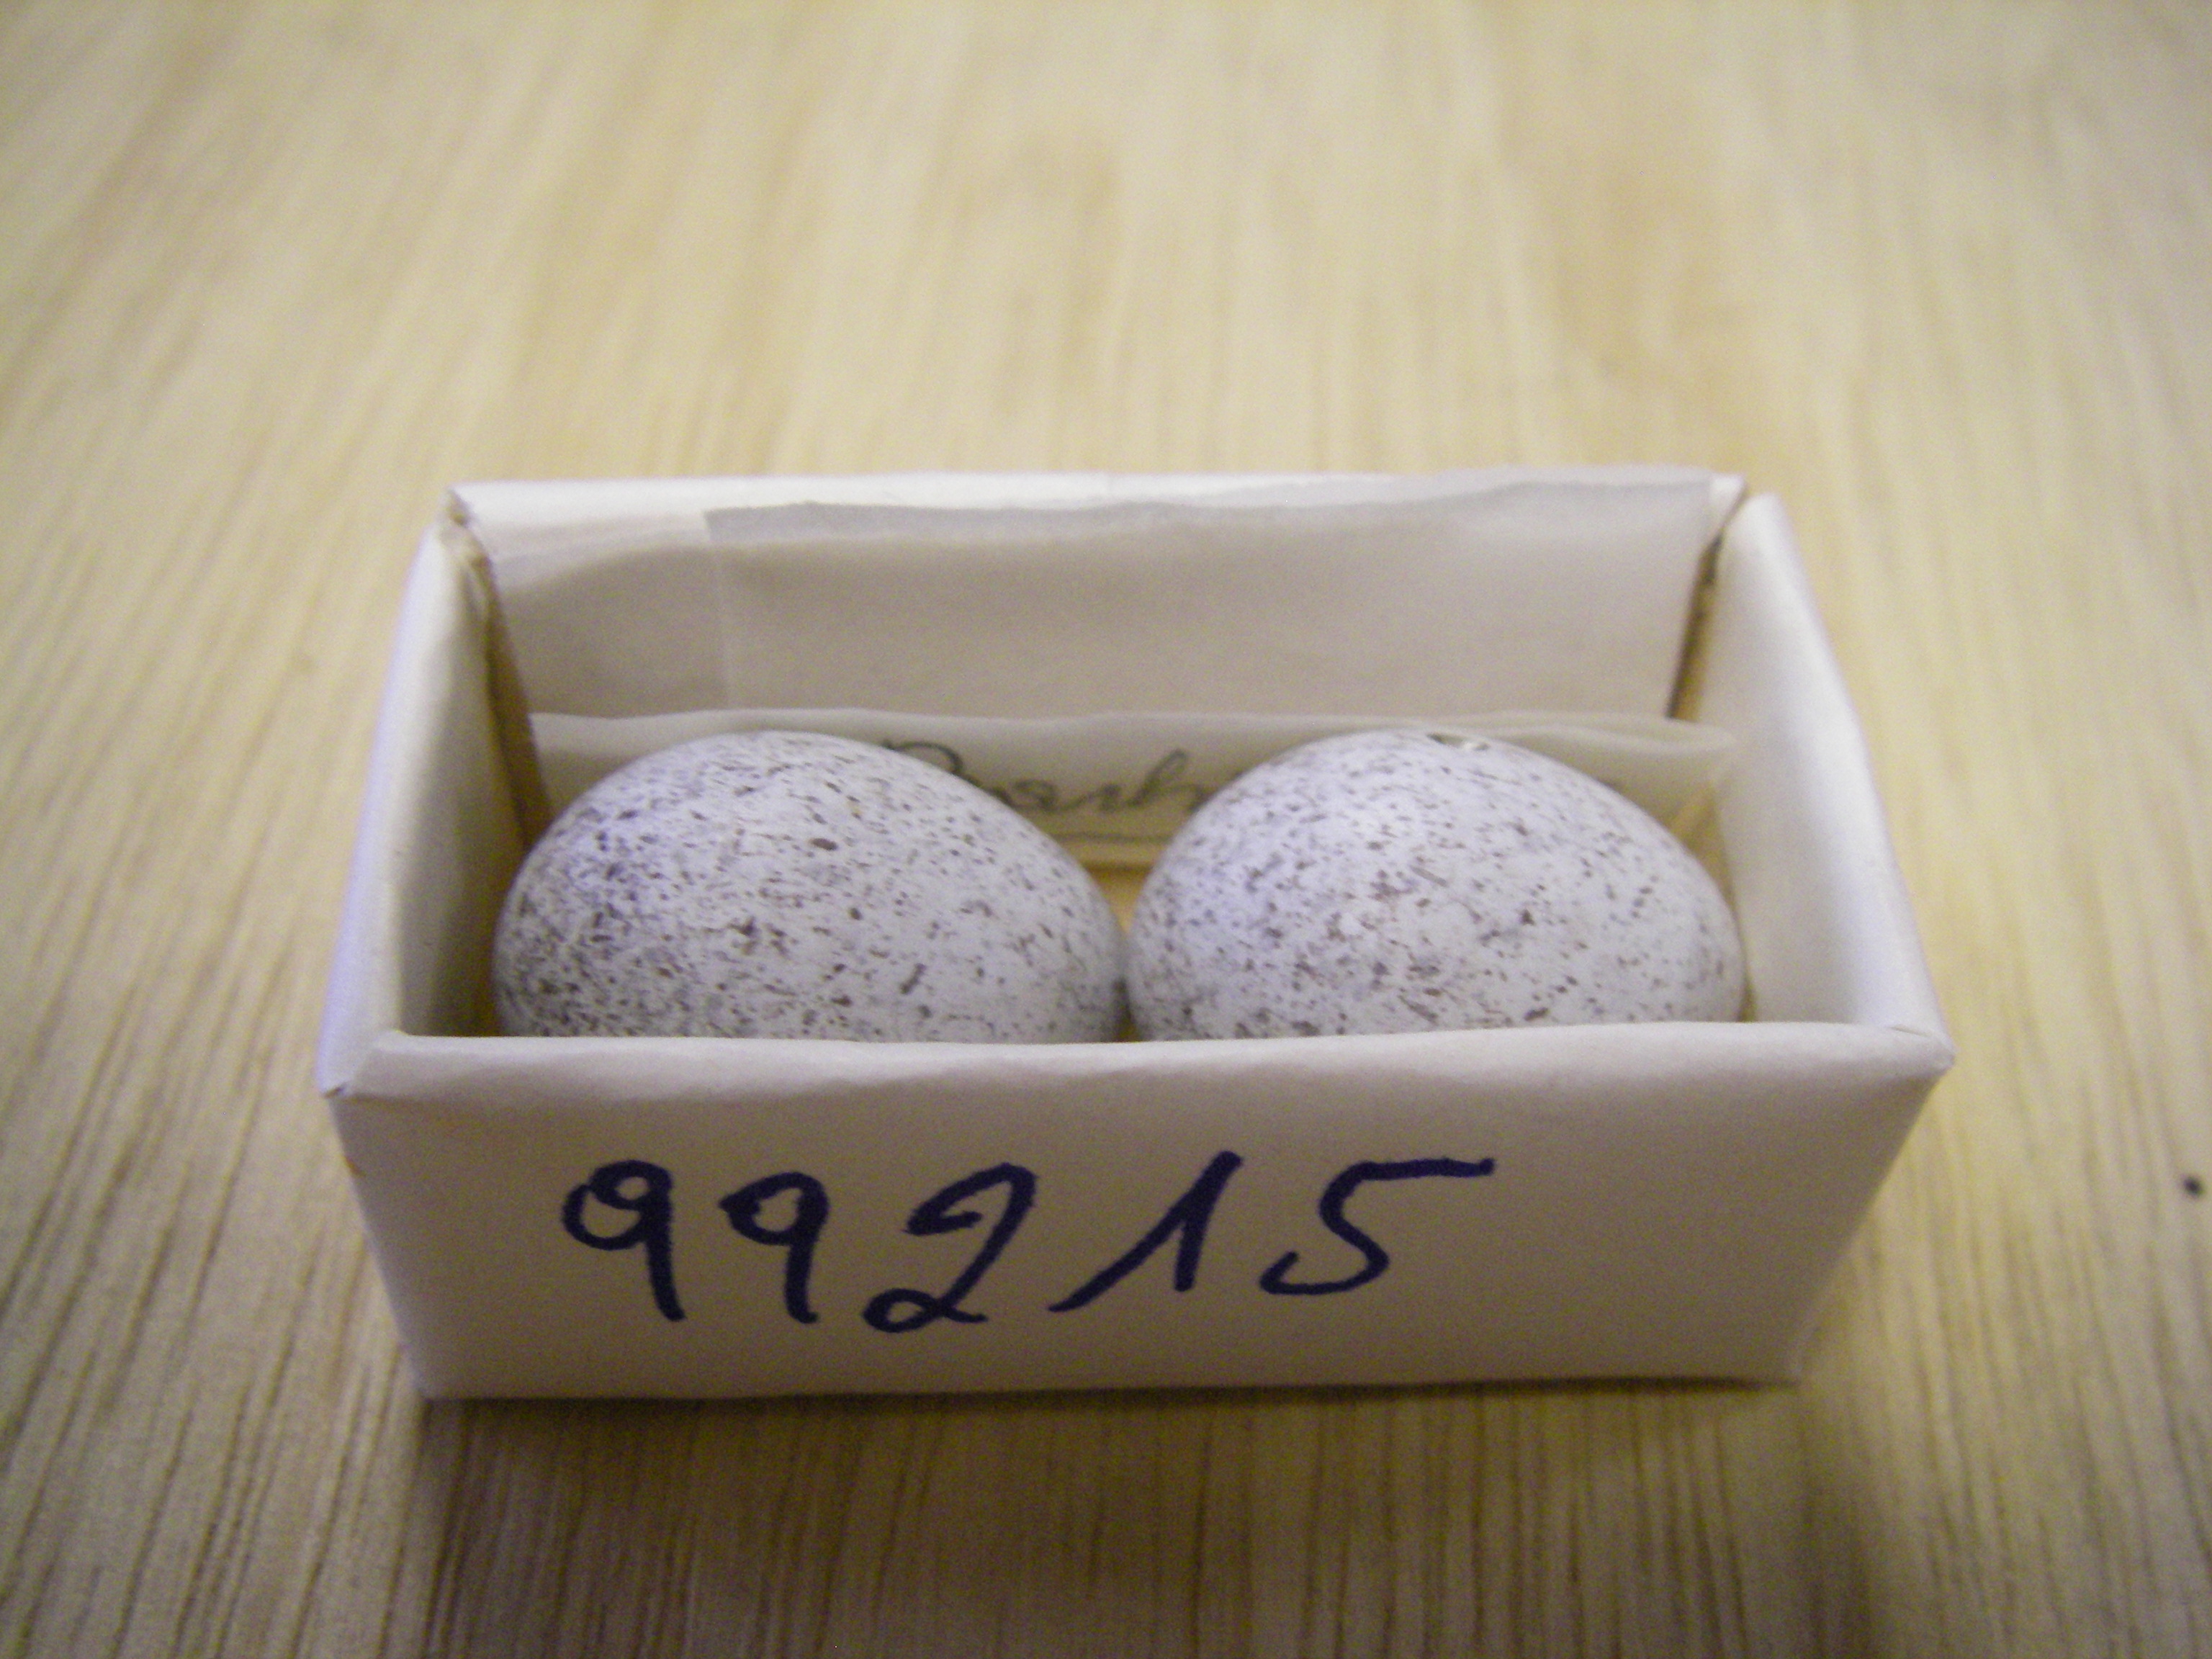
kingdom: Animalia
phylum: Chordata
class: Aves
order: Passeriformes
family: Motacillidae
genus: Motacilla
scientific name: Motacilla alba
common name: White wagtail
